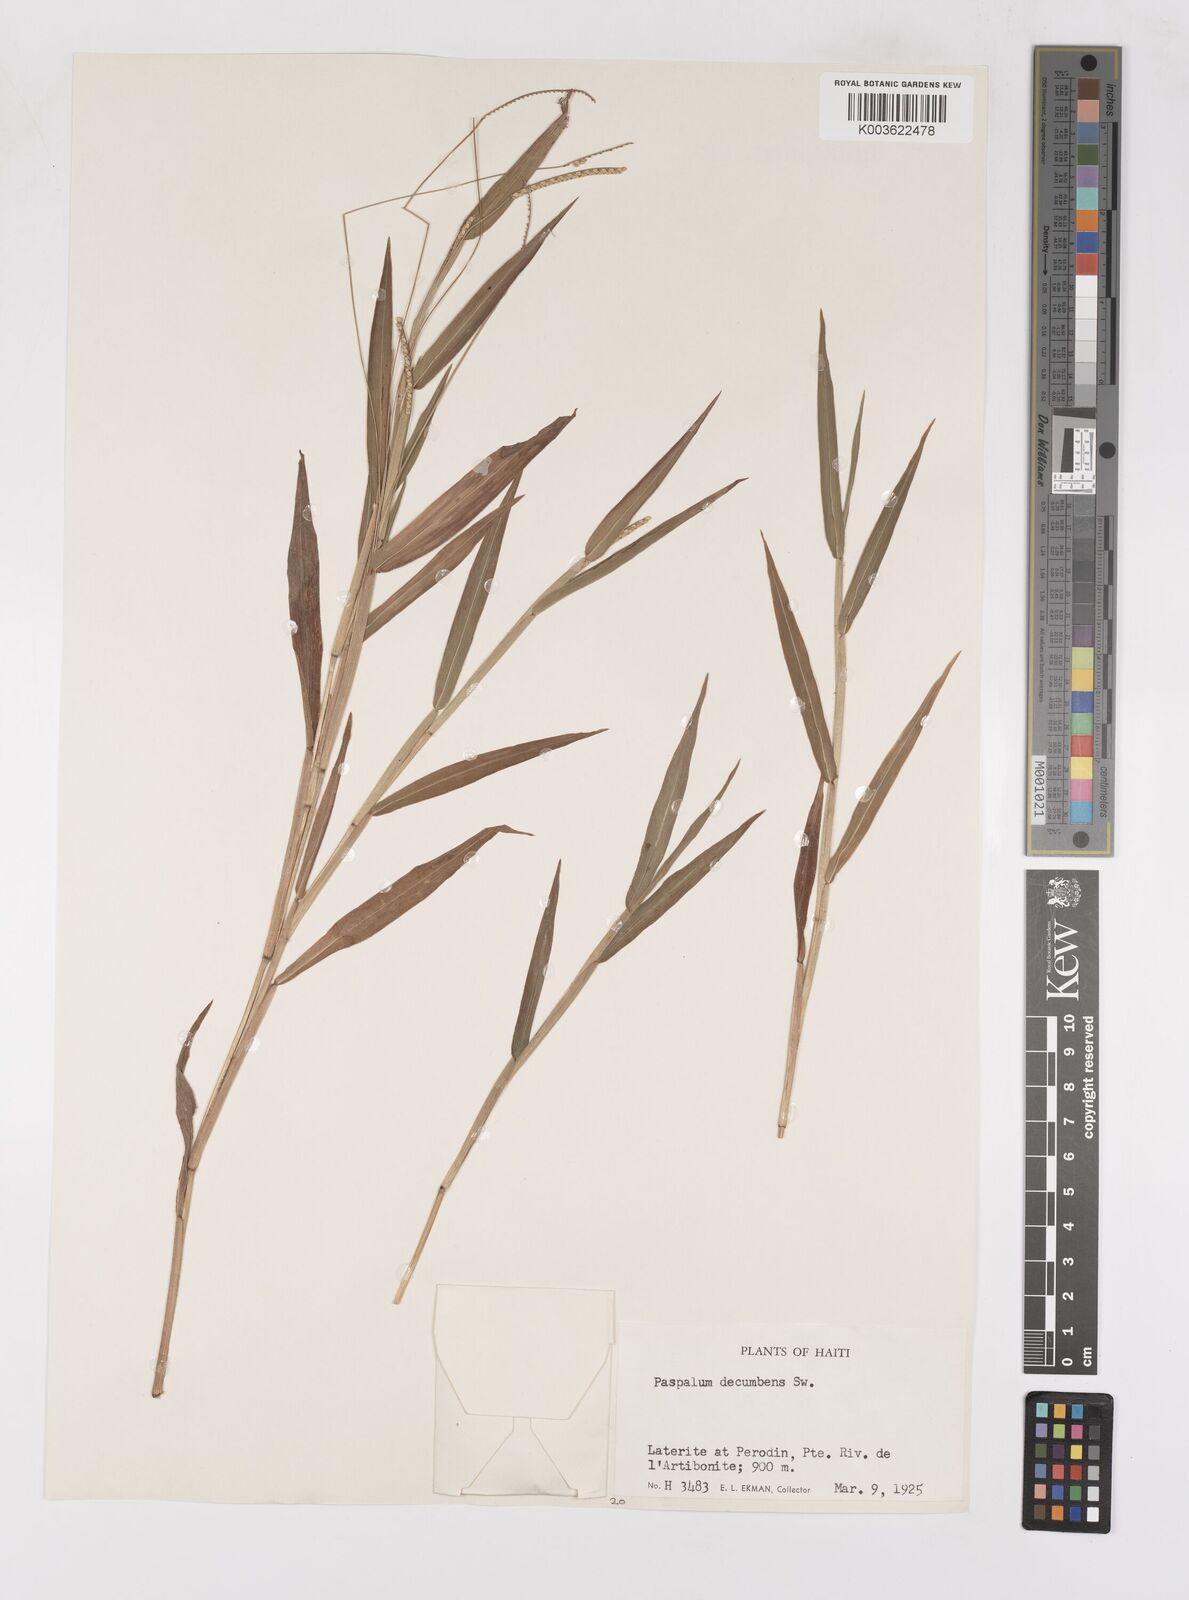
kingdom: Plantae
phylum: Tracheophyta
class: Liliopsida
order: Poales
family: Poaceae
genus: Paspalum
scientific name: Paspalum decumbens
